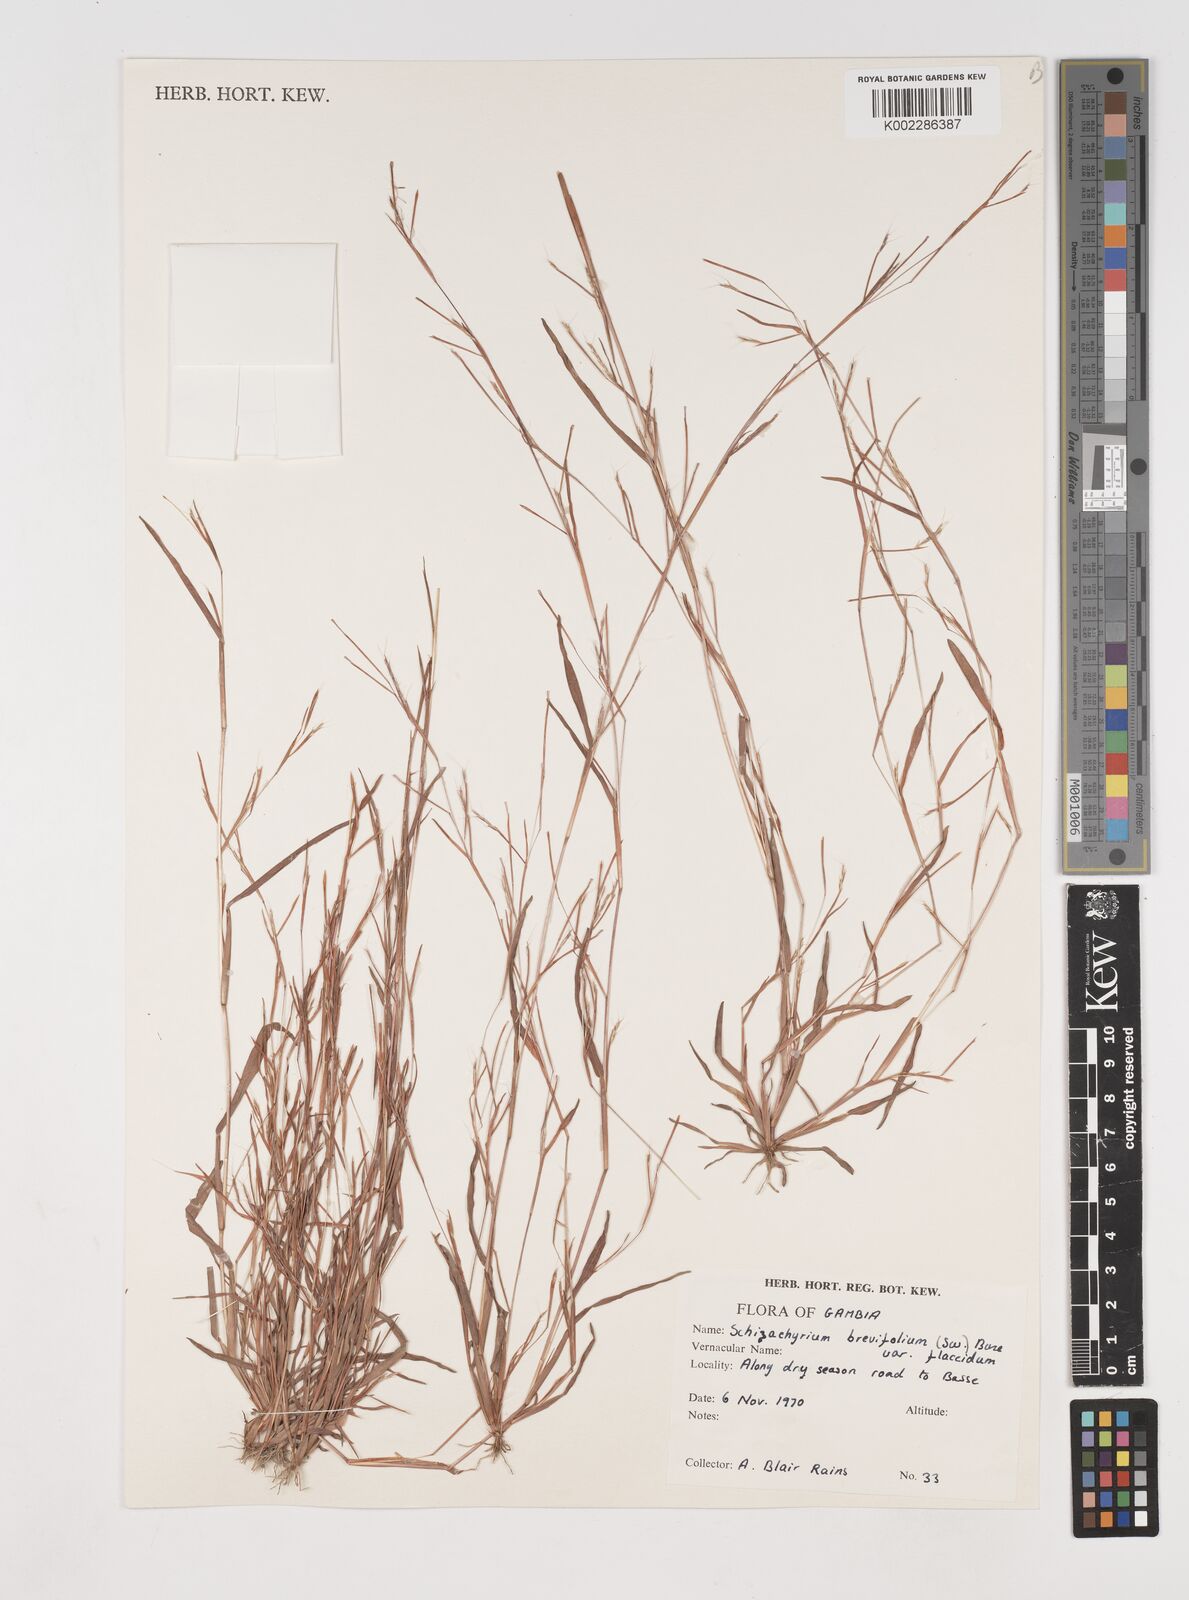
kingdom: Plantae
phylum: Tracheophyta
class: Liliopsida
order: Poales
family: Poaceae
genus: Schizachyrium
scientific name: Schizachyrium brevifolium
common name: Serillo dulce
